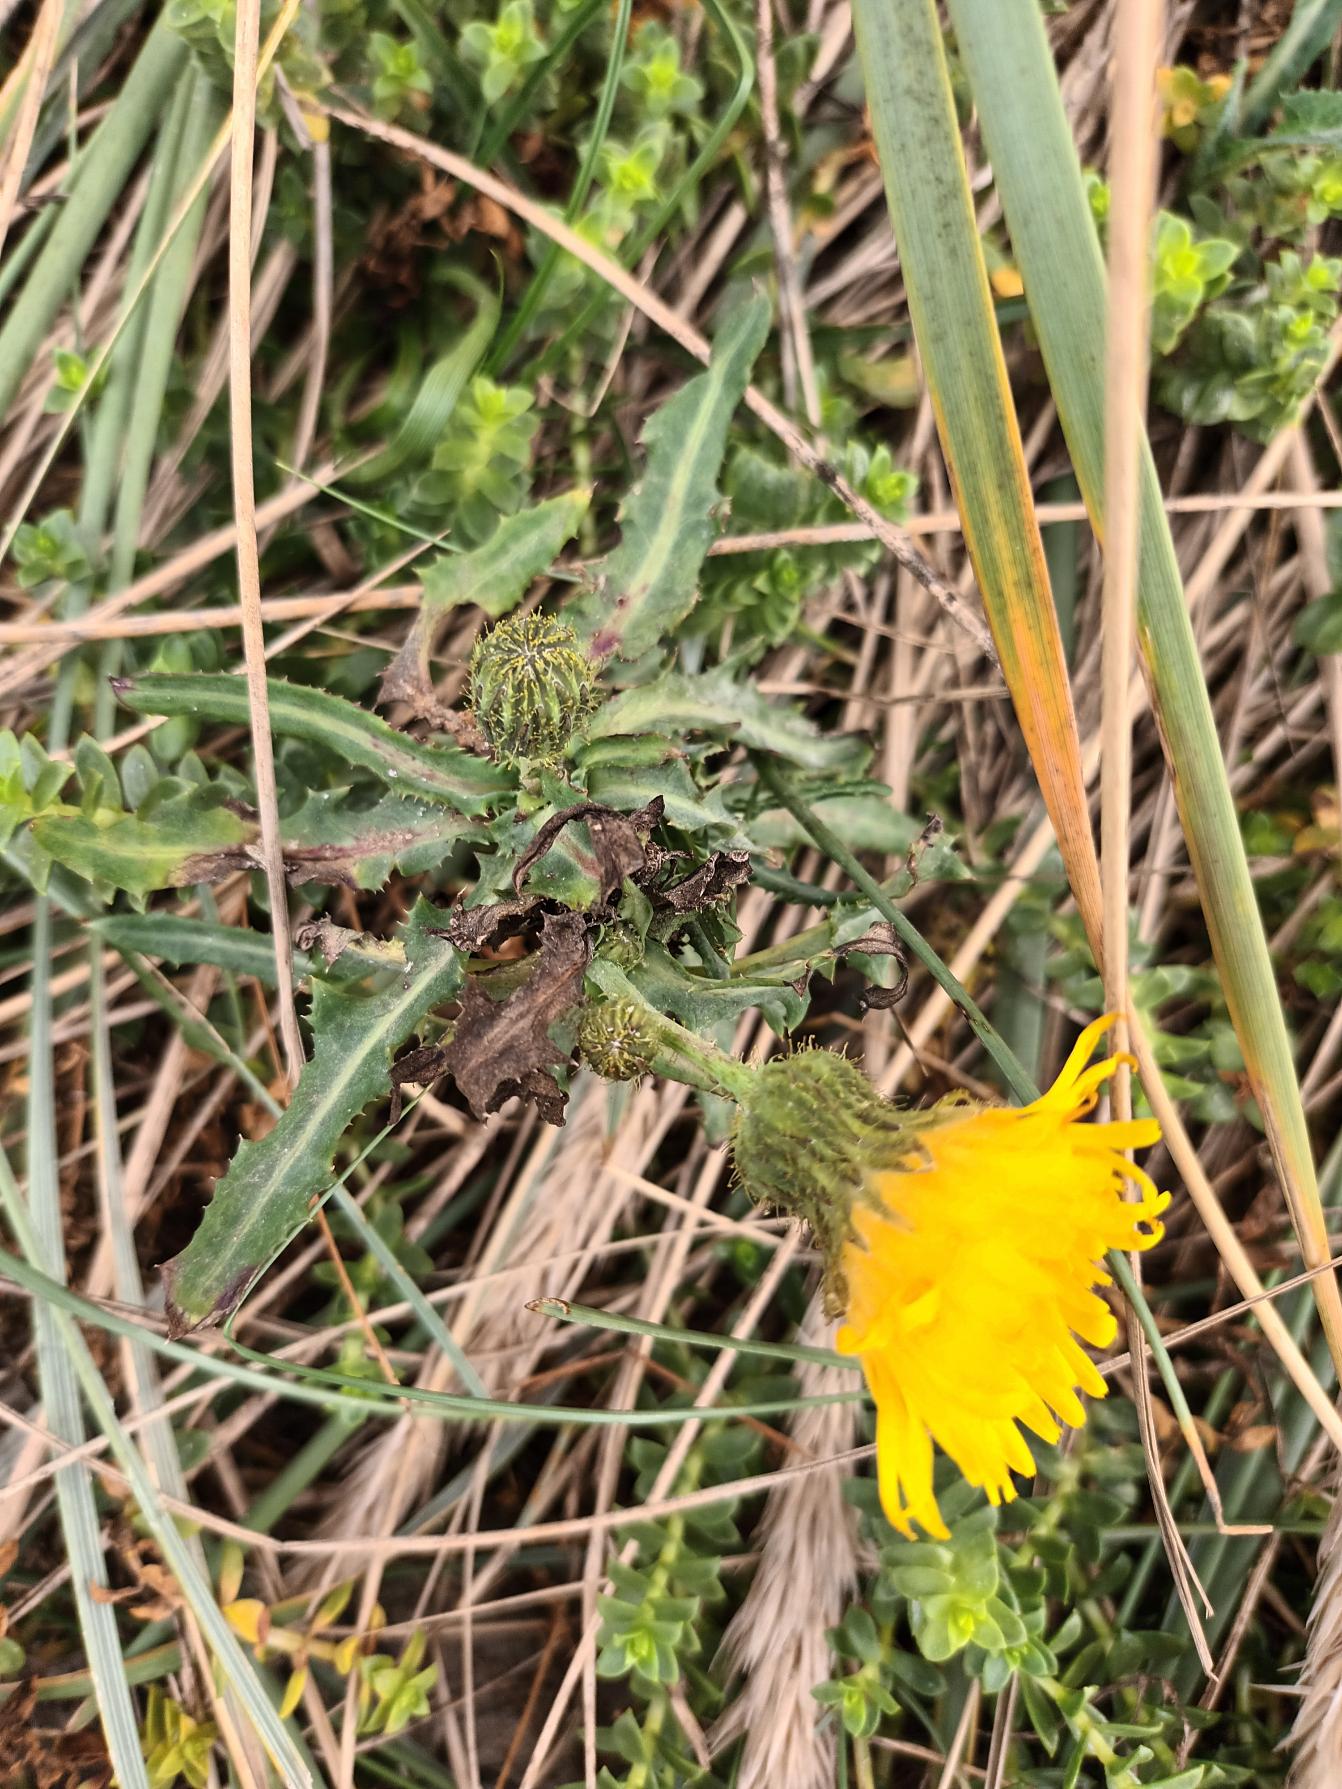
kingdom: Plantae
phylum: Tracheophyta
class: Magnoliopsida
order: Asterales
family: Asteraceae
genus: Sonchus
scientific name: Sonchus arvensis
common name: Ager-svinemælk
